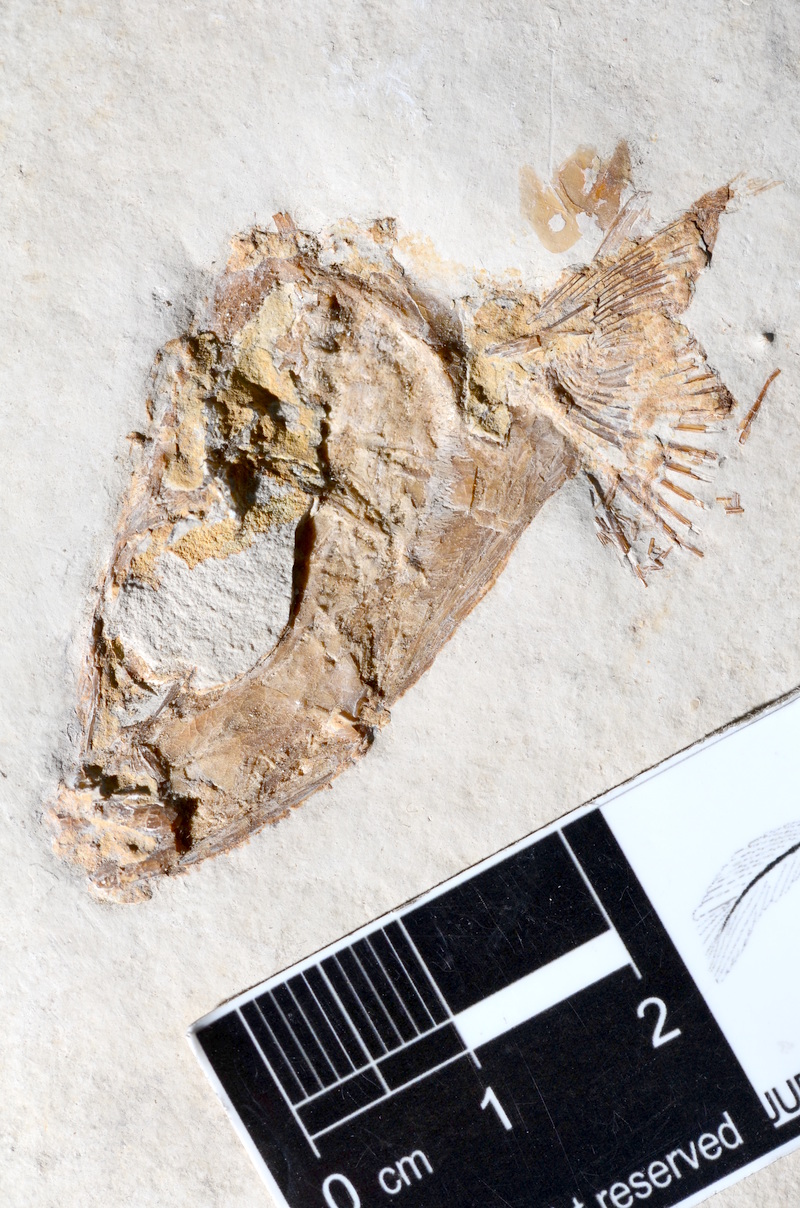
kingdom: Animalia
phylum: Chordata
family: Ascalaboidae
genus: Tharsis
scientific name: Tharsis dubius
